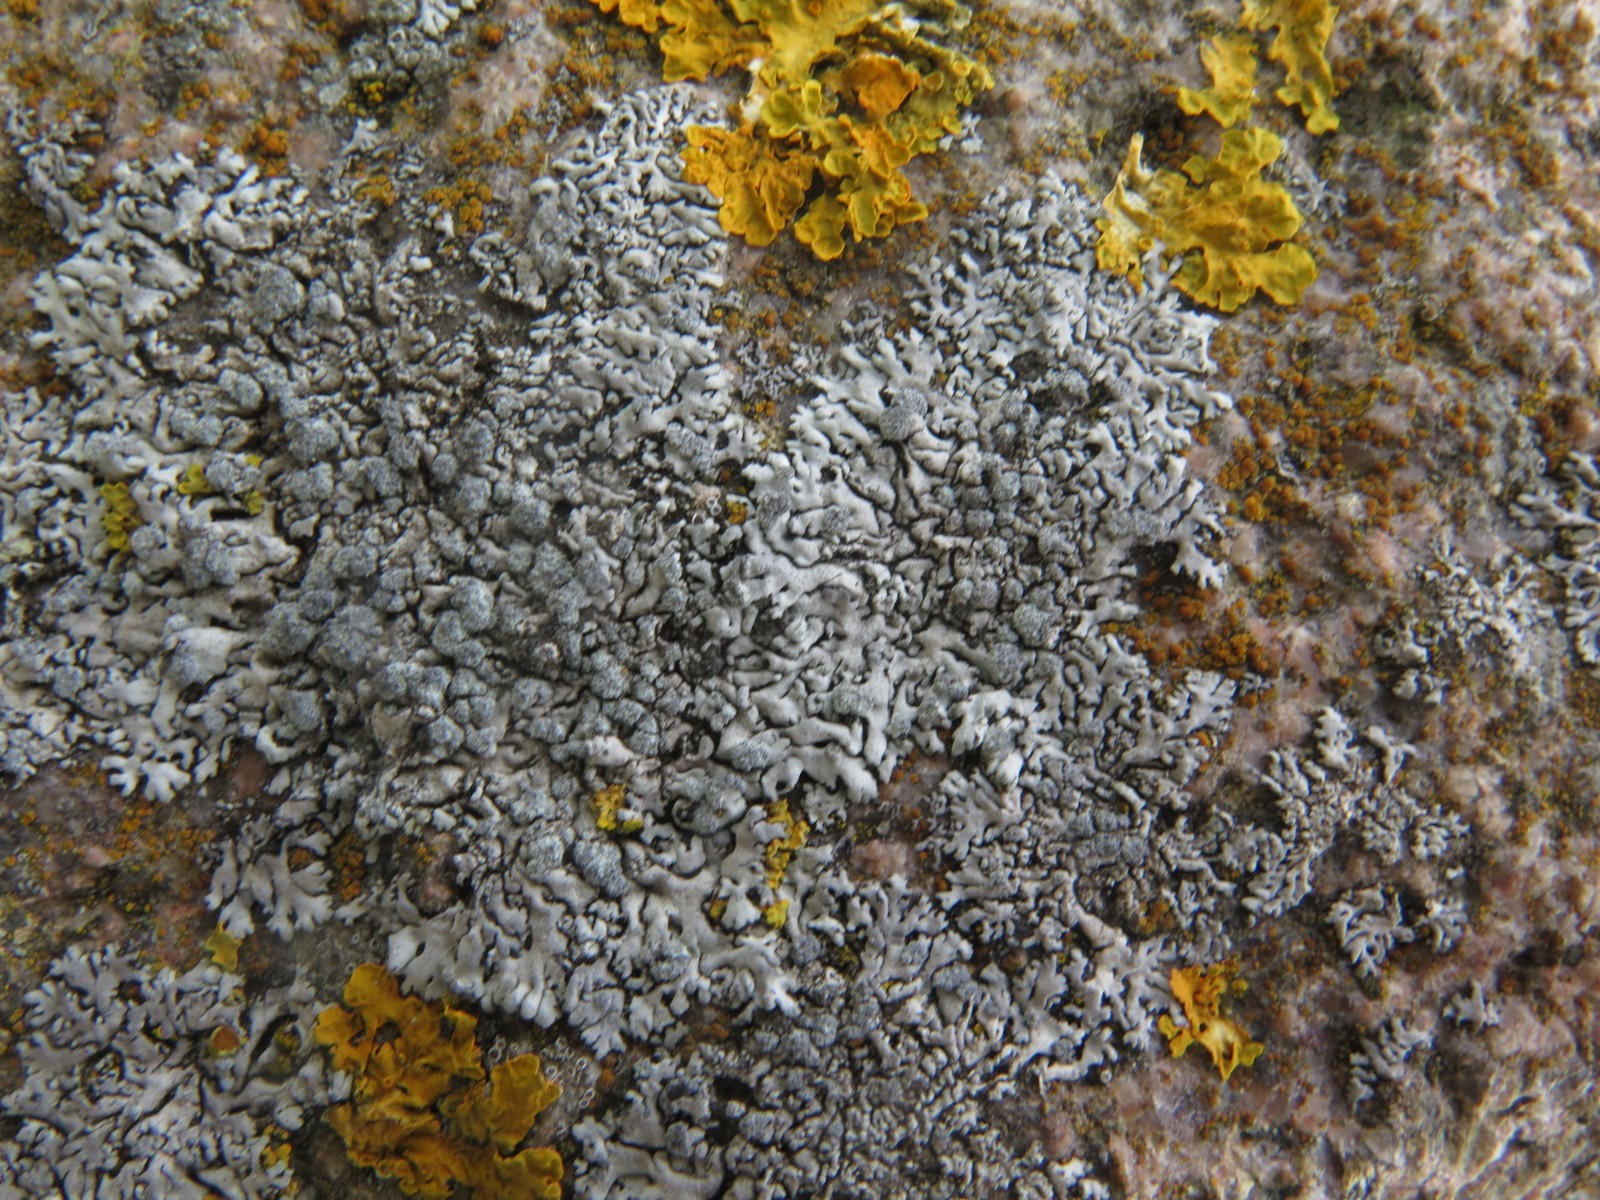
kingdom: Fungi
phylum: Ascomycota
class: Lecanoromycetes
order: Caliciales
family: Physciaceae
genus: Physcia
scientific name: Physcia caesia
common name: blågrå rosetlav
